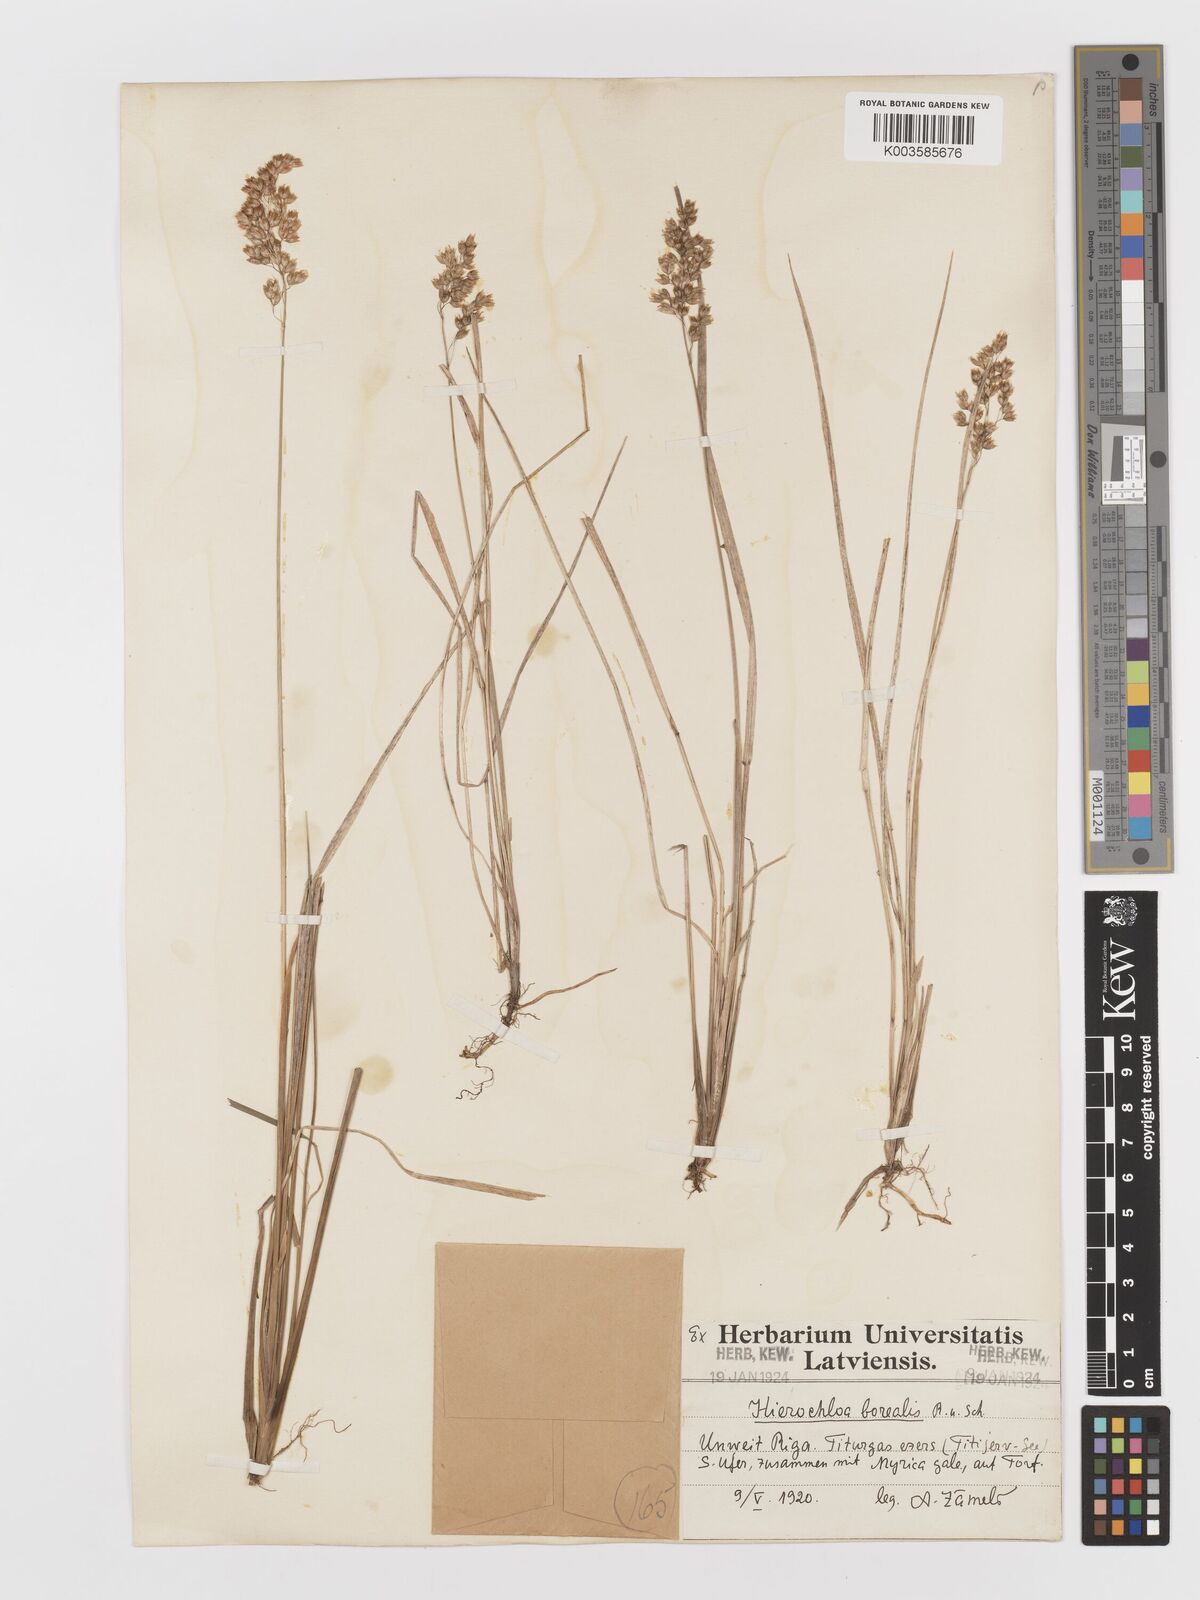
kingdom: Plantae
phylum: Tracheophyta
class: Liliopsida
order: Poales
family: Poaceae
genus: Anthoxanthum
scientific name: Anthoxanthum nitens
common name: Holy grass
